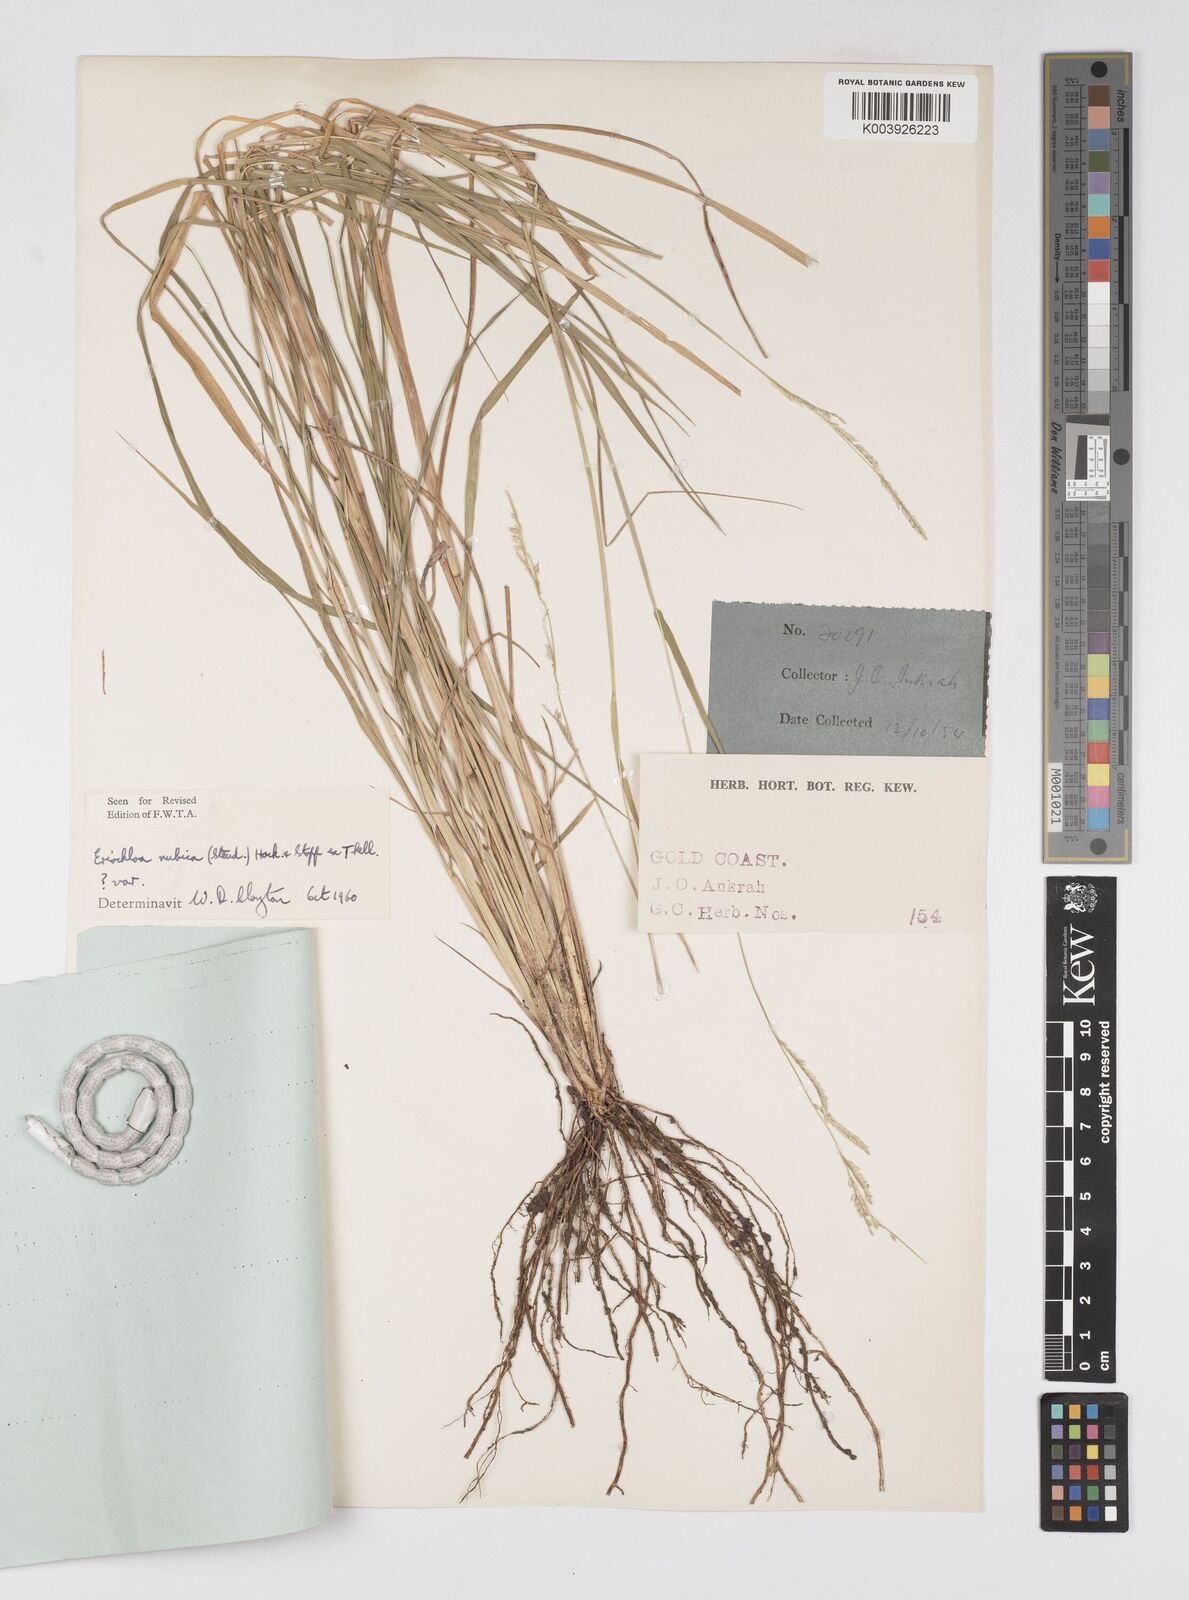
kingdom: Plantae
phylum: Tracheophyta
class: Liliopsida
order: Poales
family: Poaceae
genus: Eriochloa
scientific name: Eriochloa barbatus
